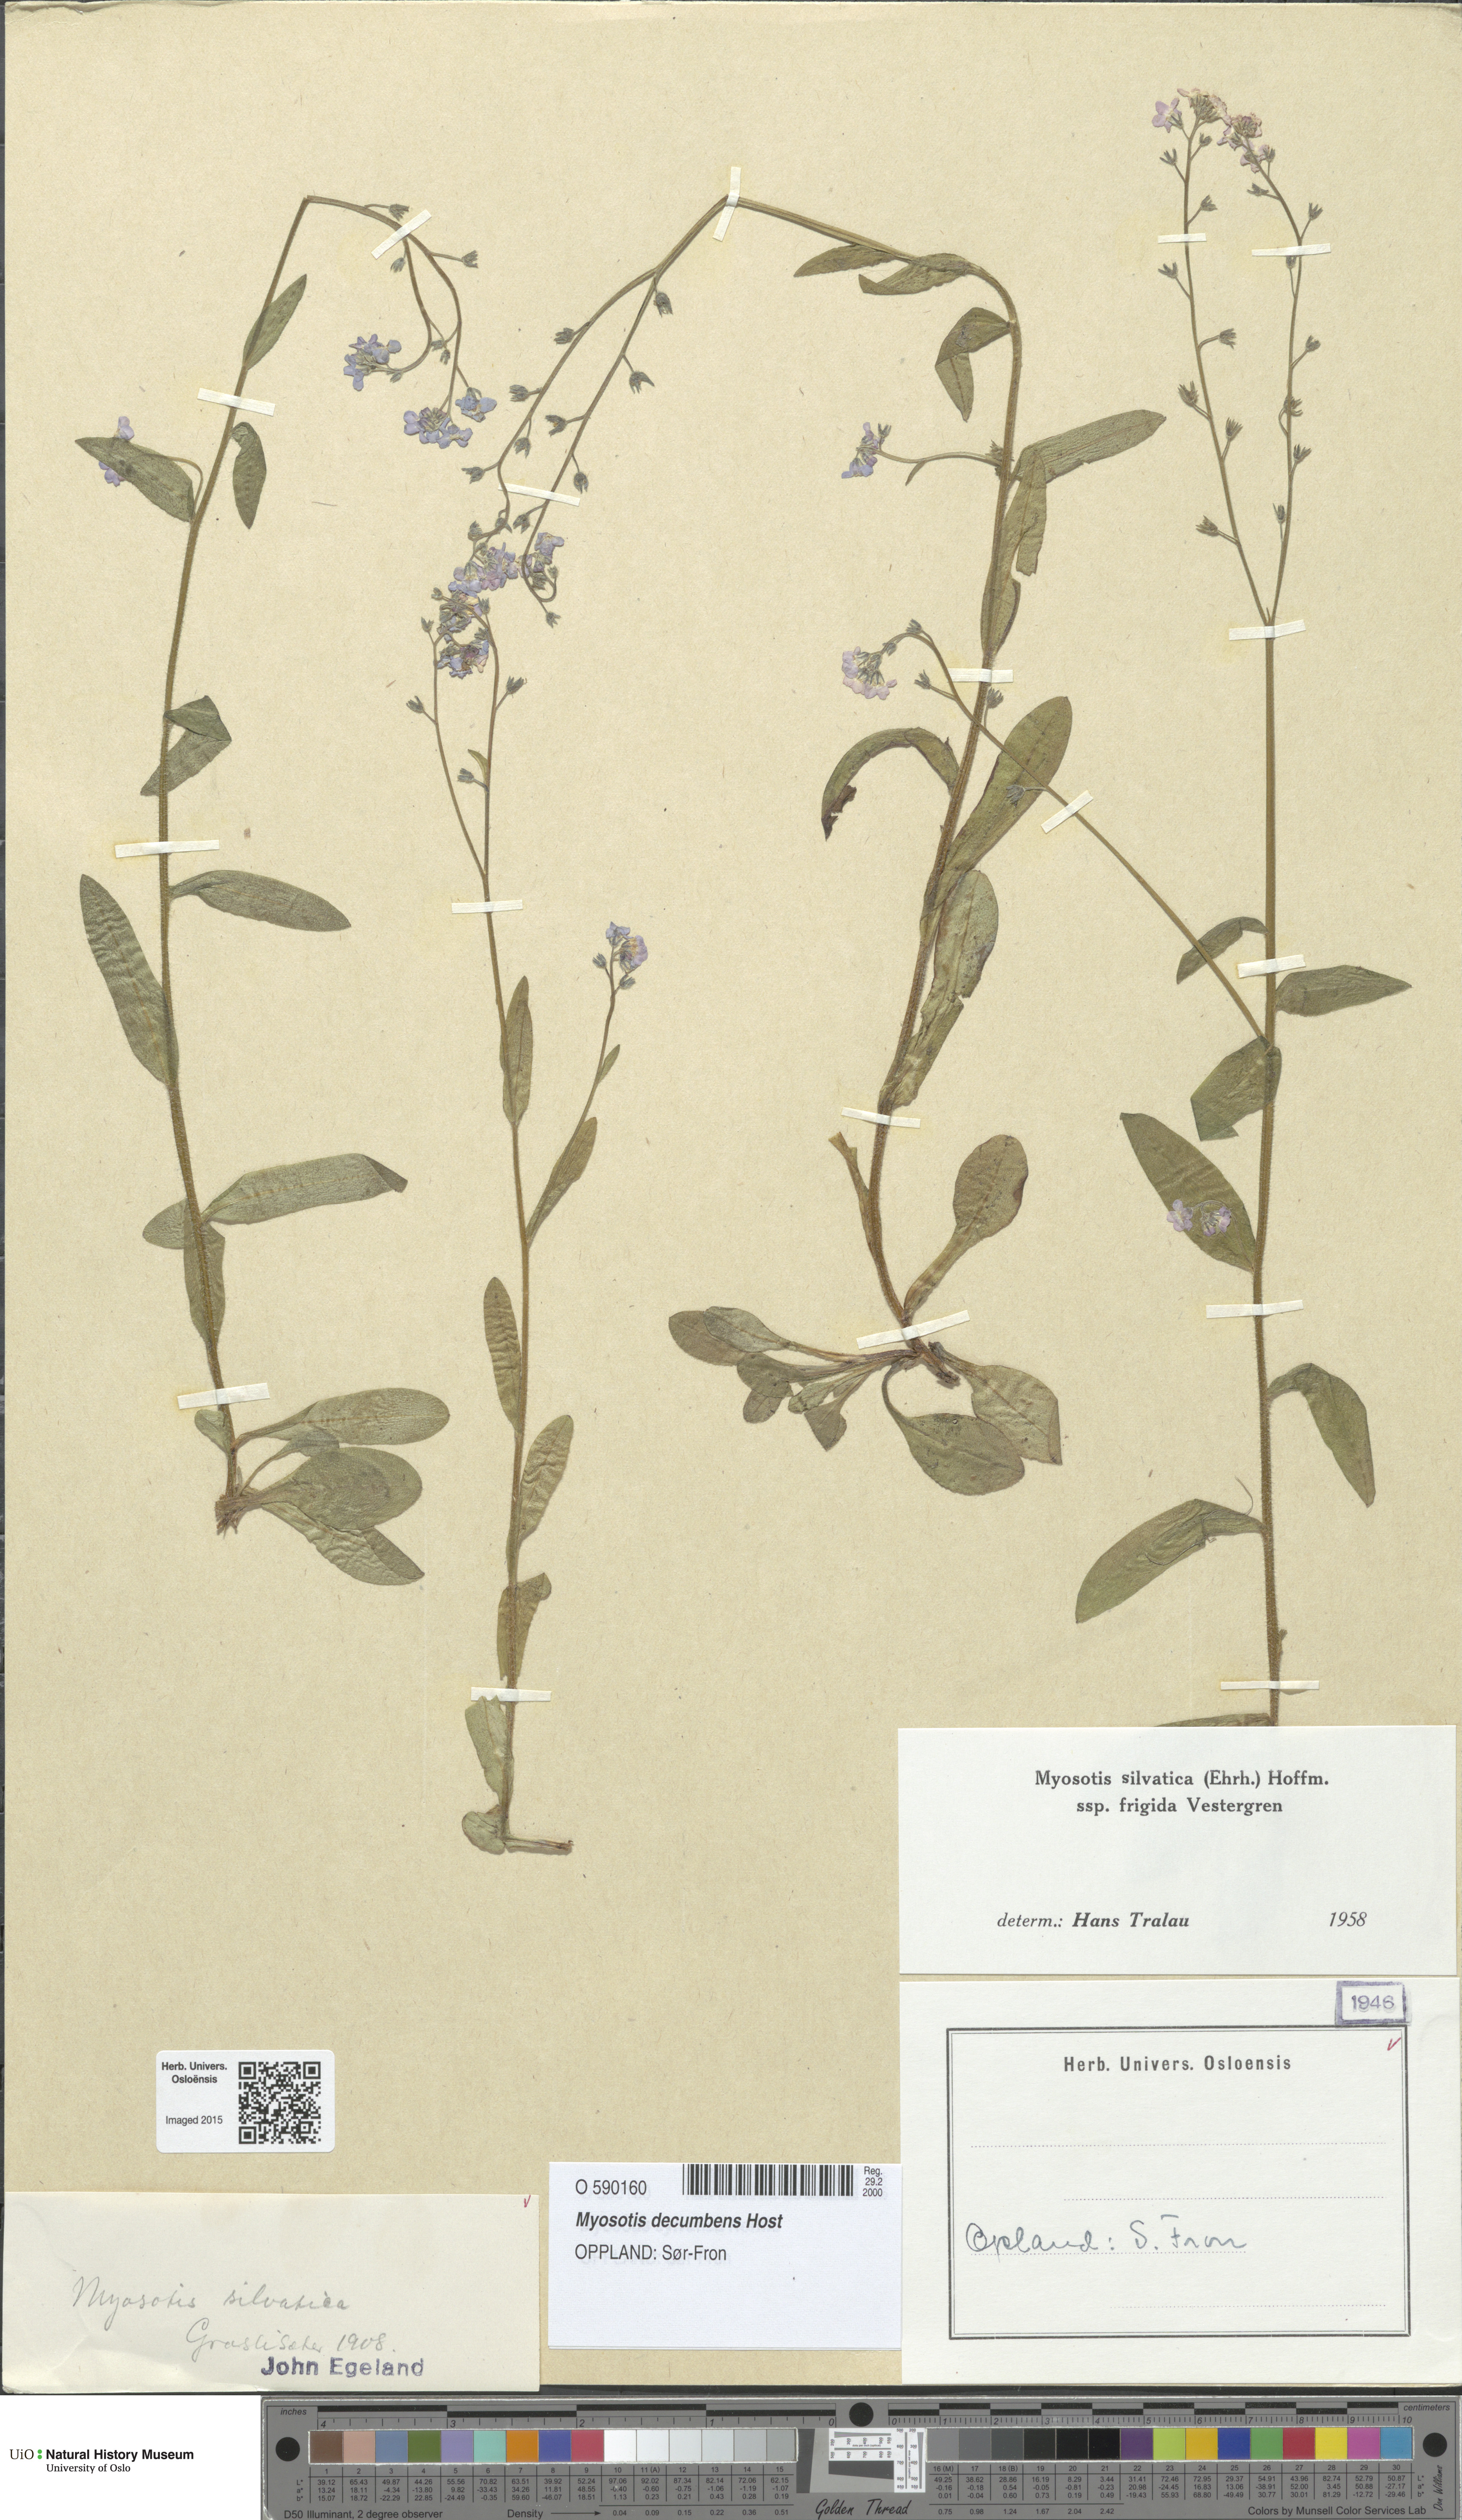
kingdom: Plantae
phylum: Tracheophyta
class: Magnoliopsida
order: Boraginales
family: Boraginaceae
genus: Myosotis
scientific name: Myosotis decumbens
